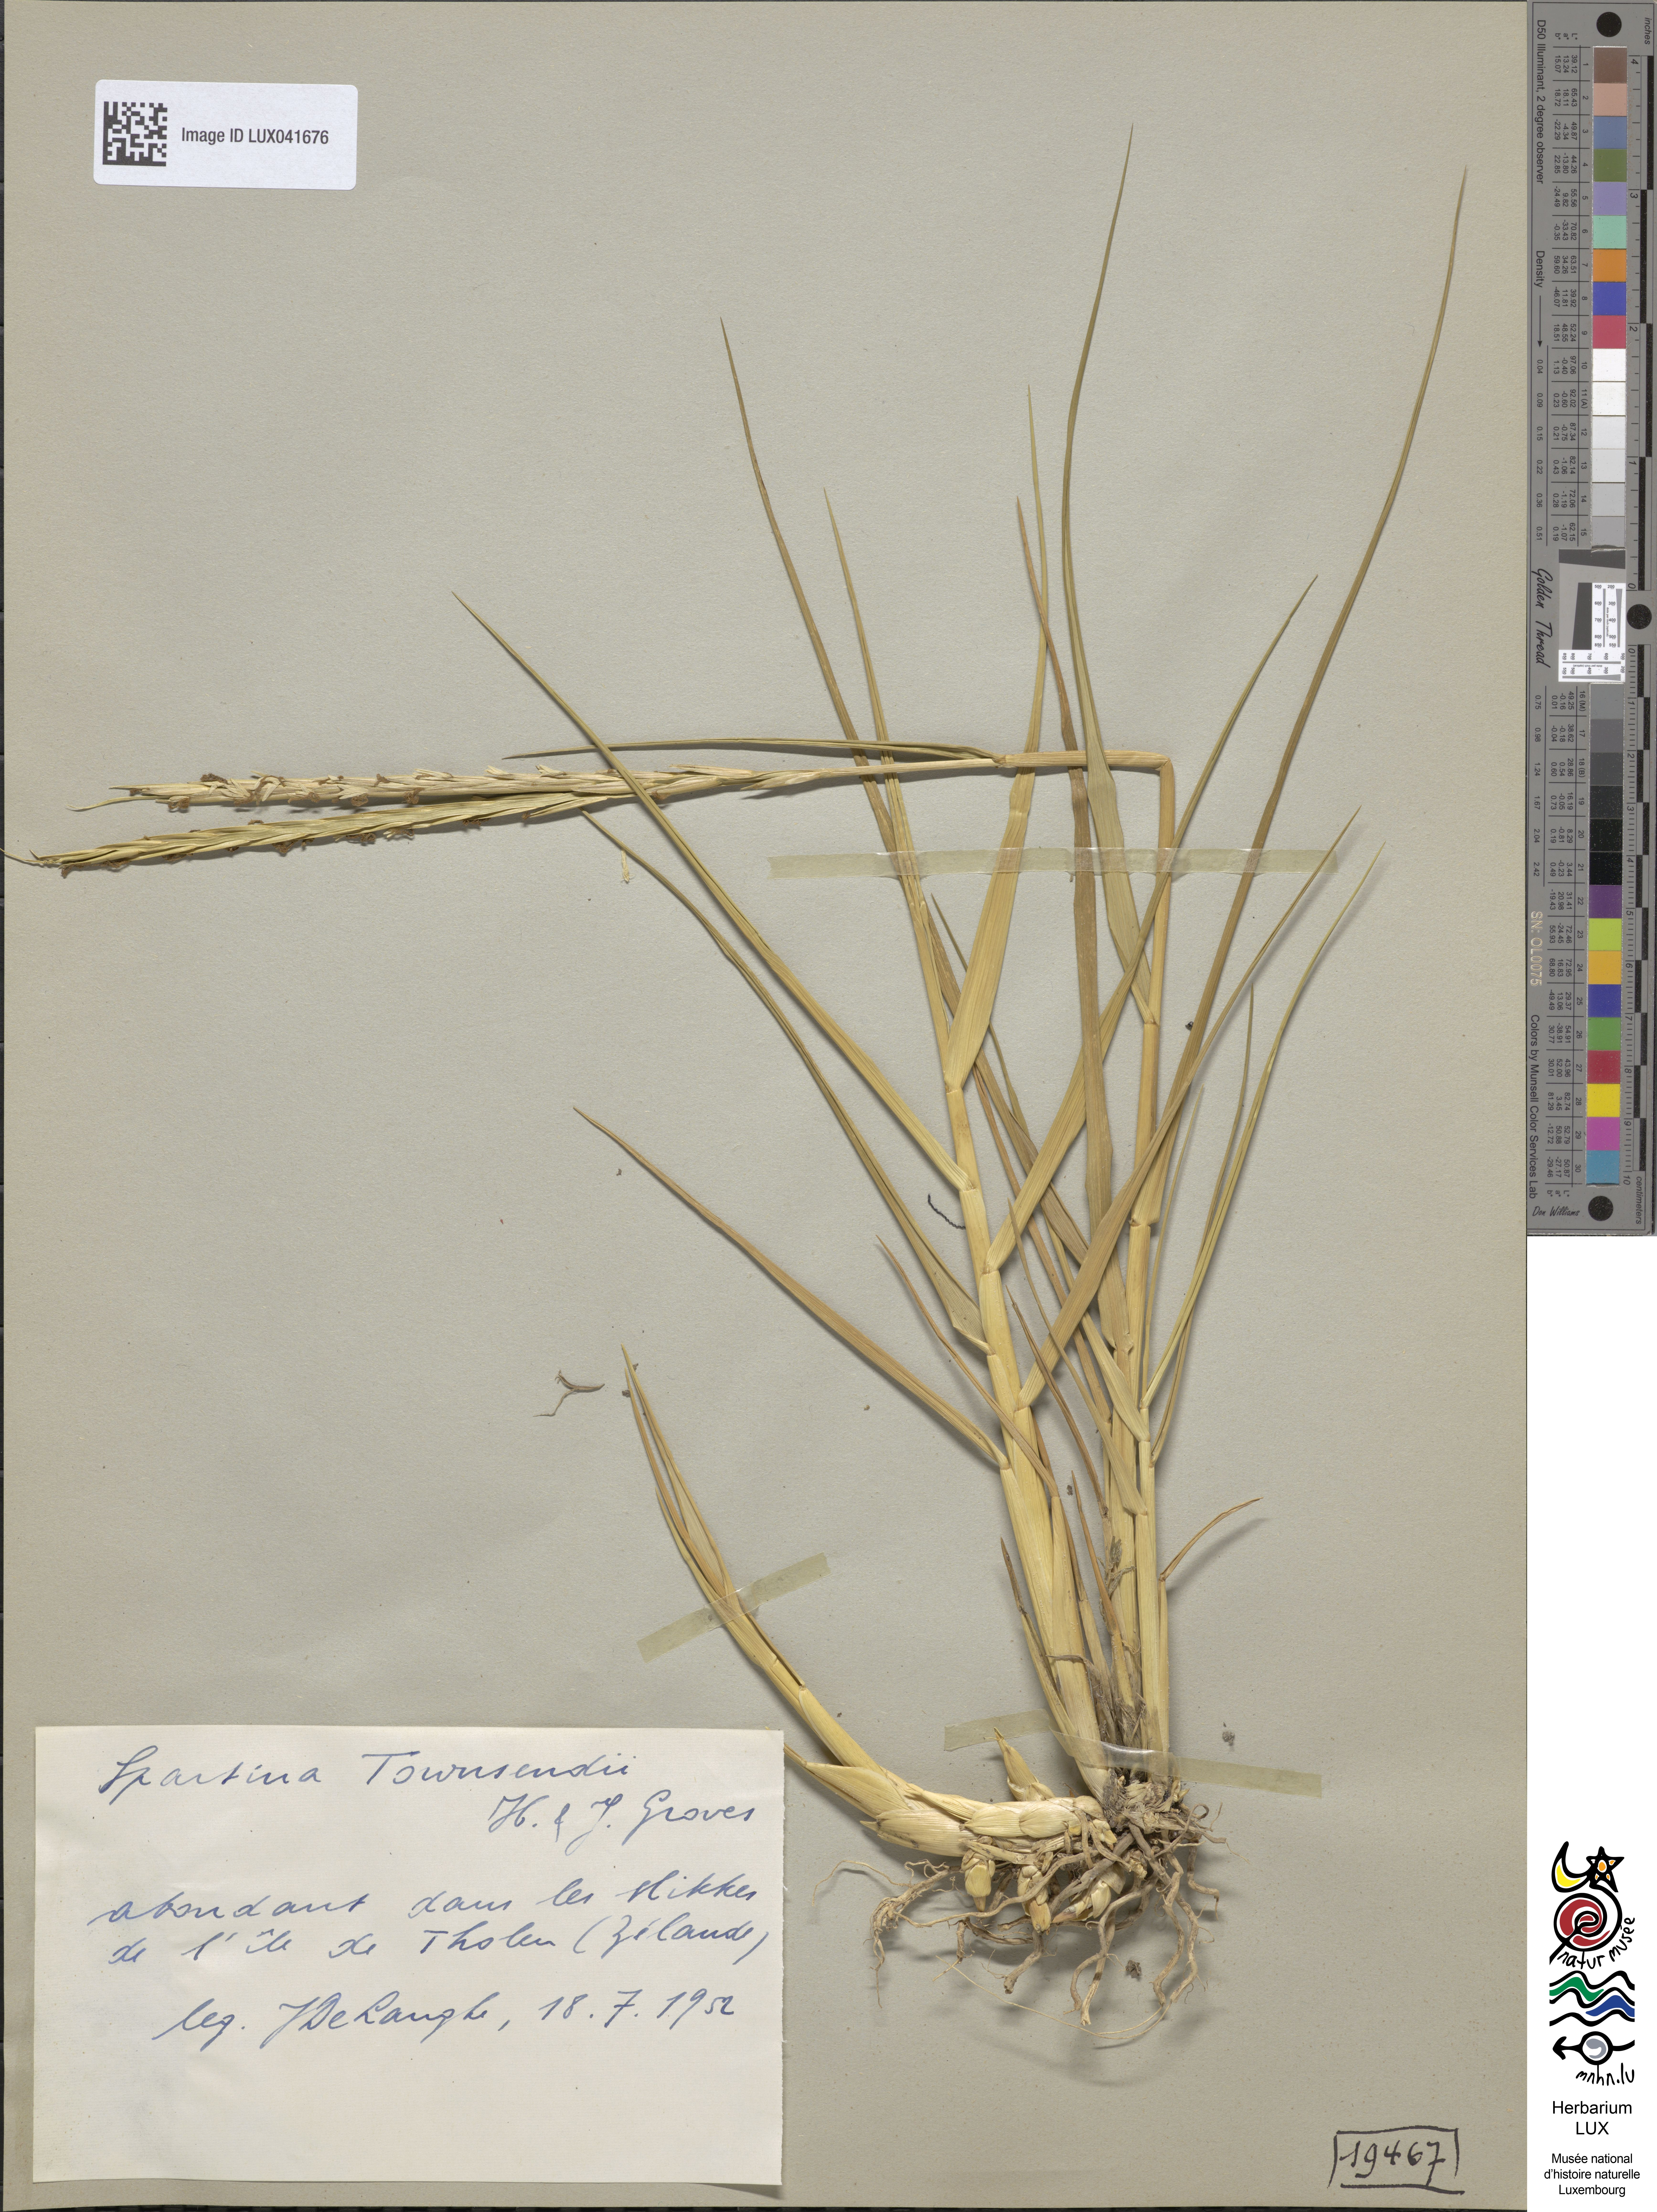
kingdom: Plantae
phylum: Tracheophyta
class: Liliopsida
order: Poales
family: Poaceae
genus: Sporobolus
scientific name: Sporobolus townsendii
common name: Townsend's cordgrass
